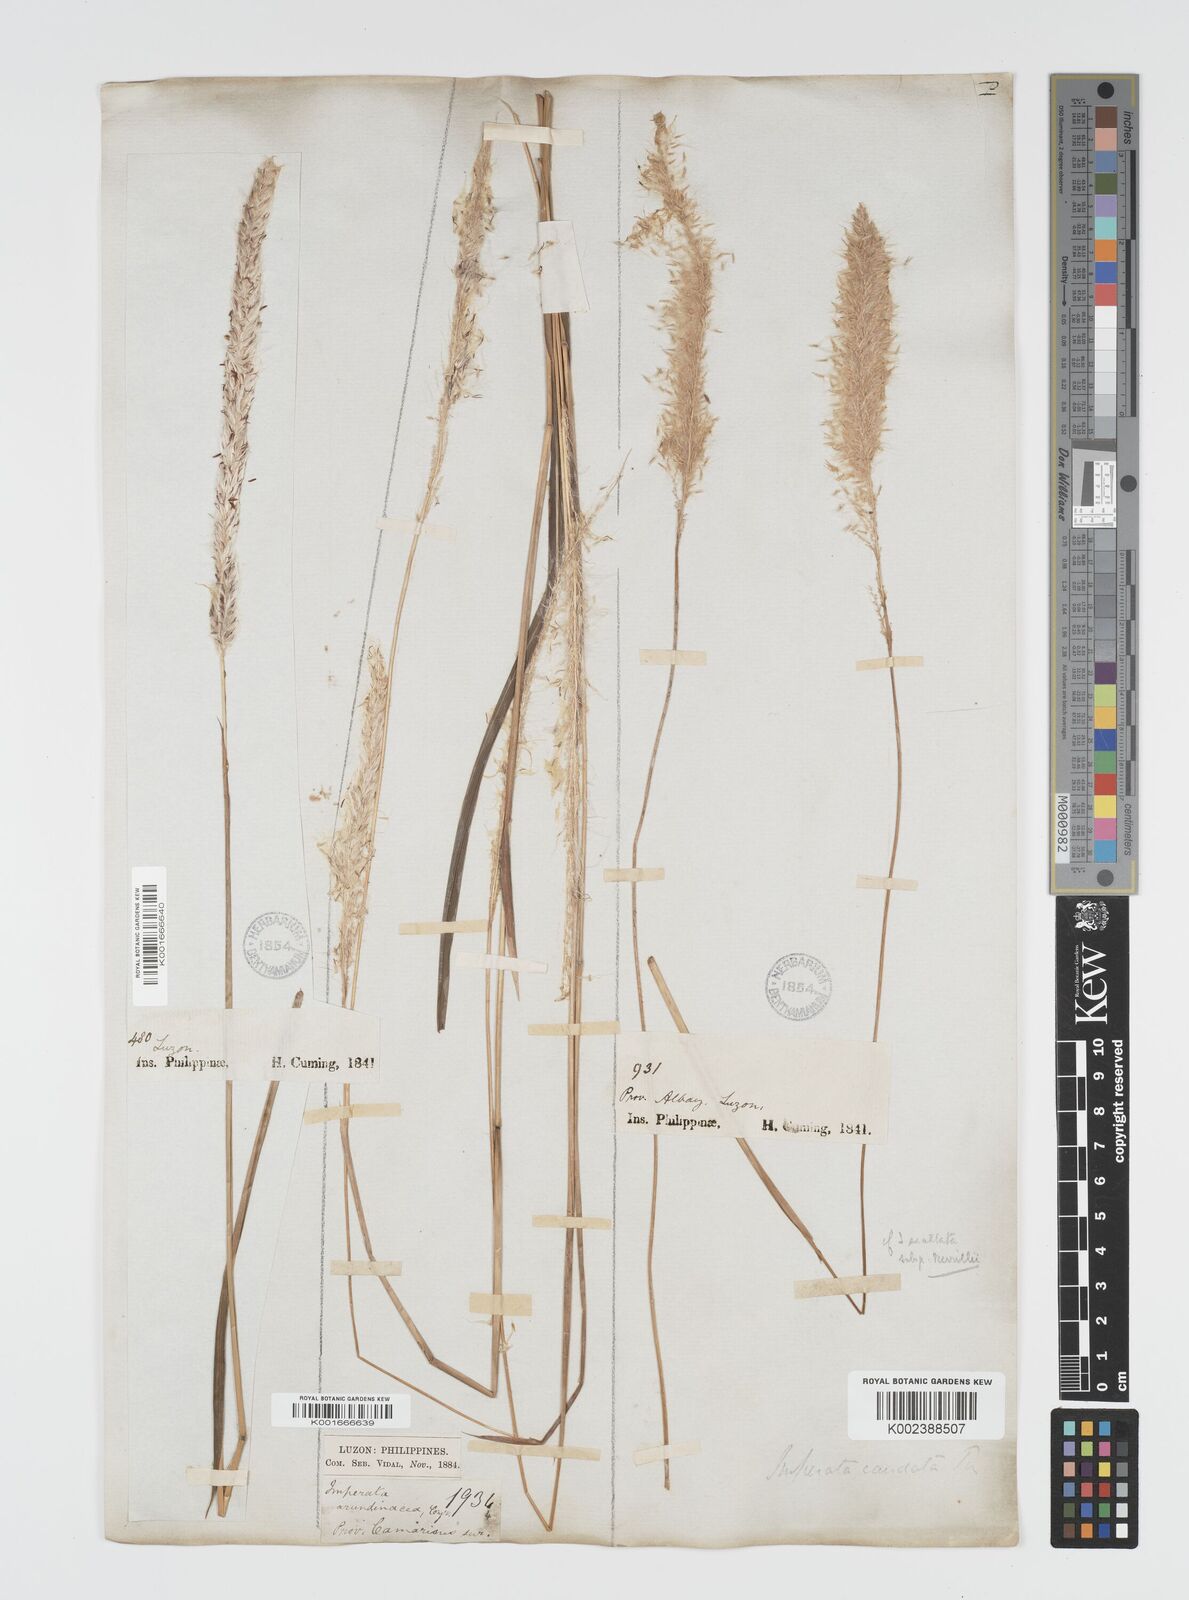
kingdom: Plantae
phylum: Tracheophyta
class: Liliopsida
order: Poales
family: Poaceae
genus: Imperata
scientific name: Imperata cylindrica
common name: Cogongrass
